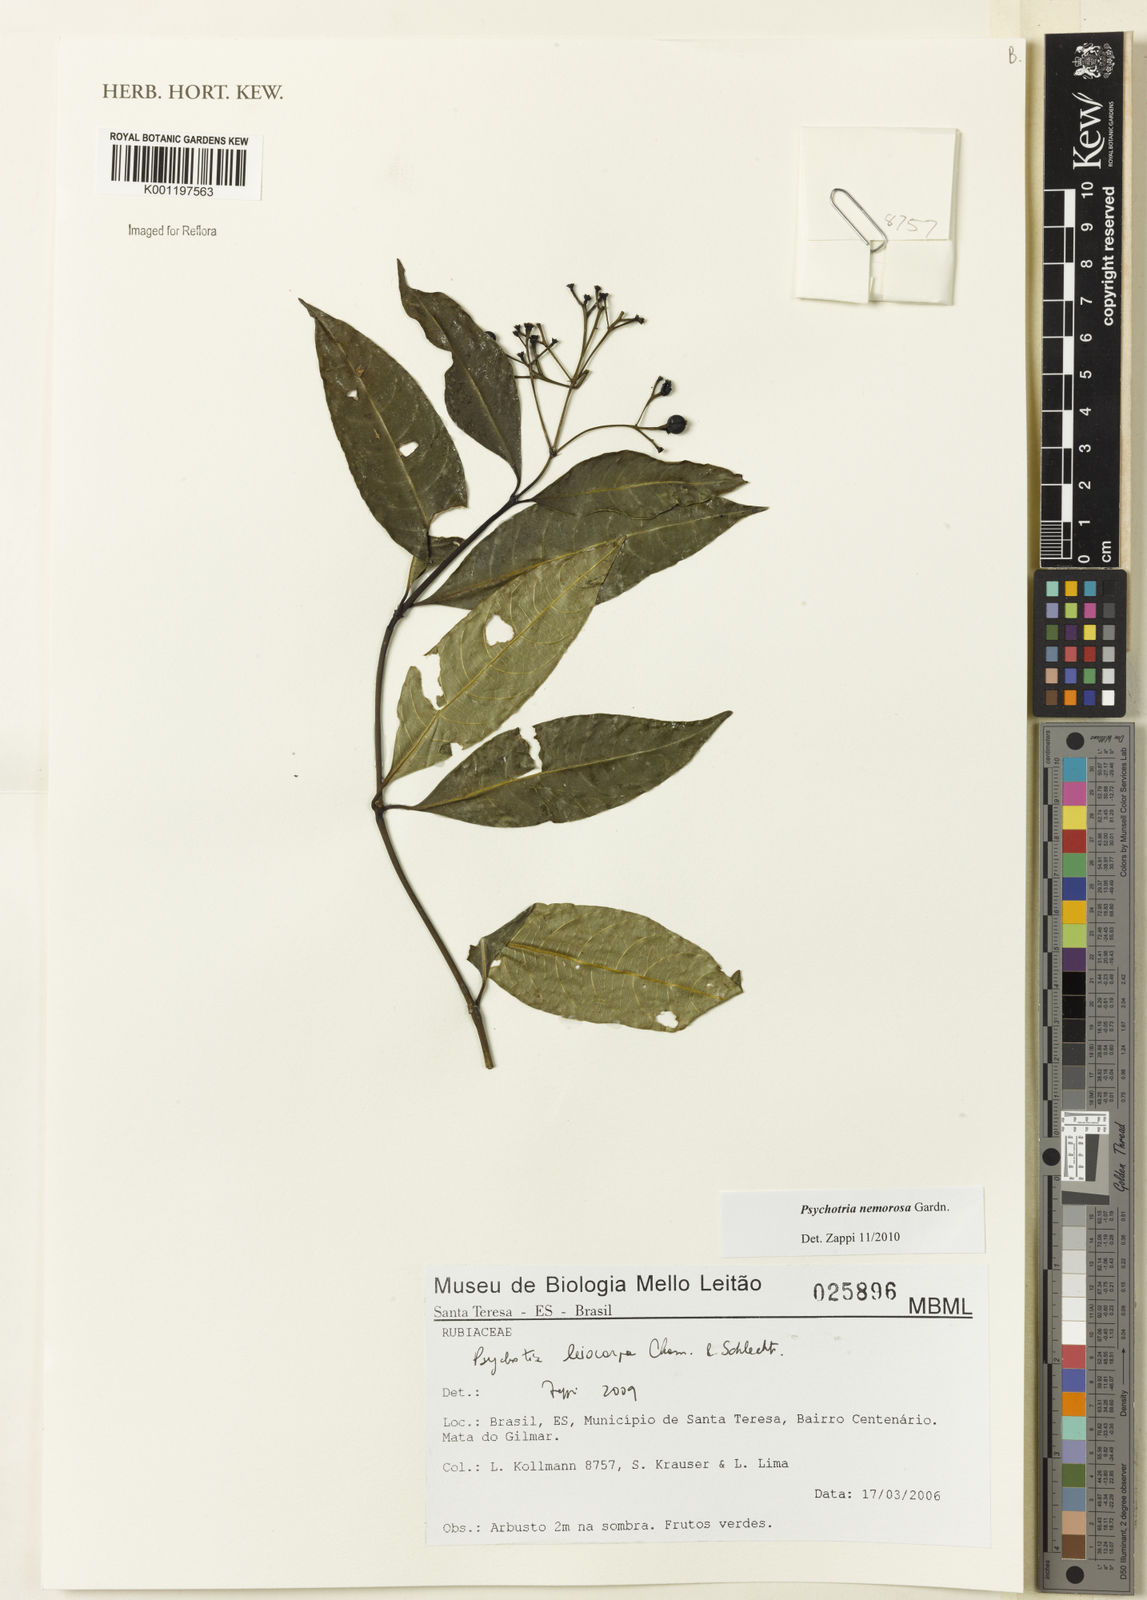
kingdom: Plantae
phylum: Tracheophyta
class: Magnoliopsida
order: Gentianales
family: Rubiaceae
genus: Psychotria
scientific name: Psychotria nemorosa
